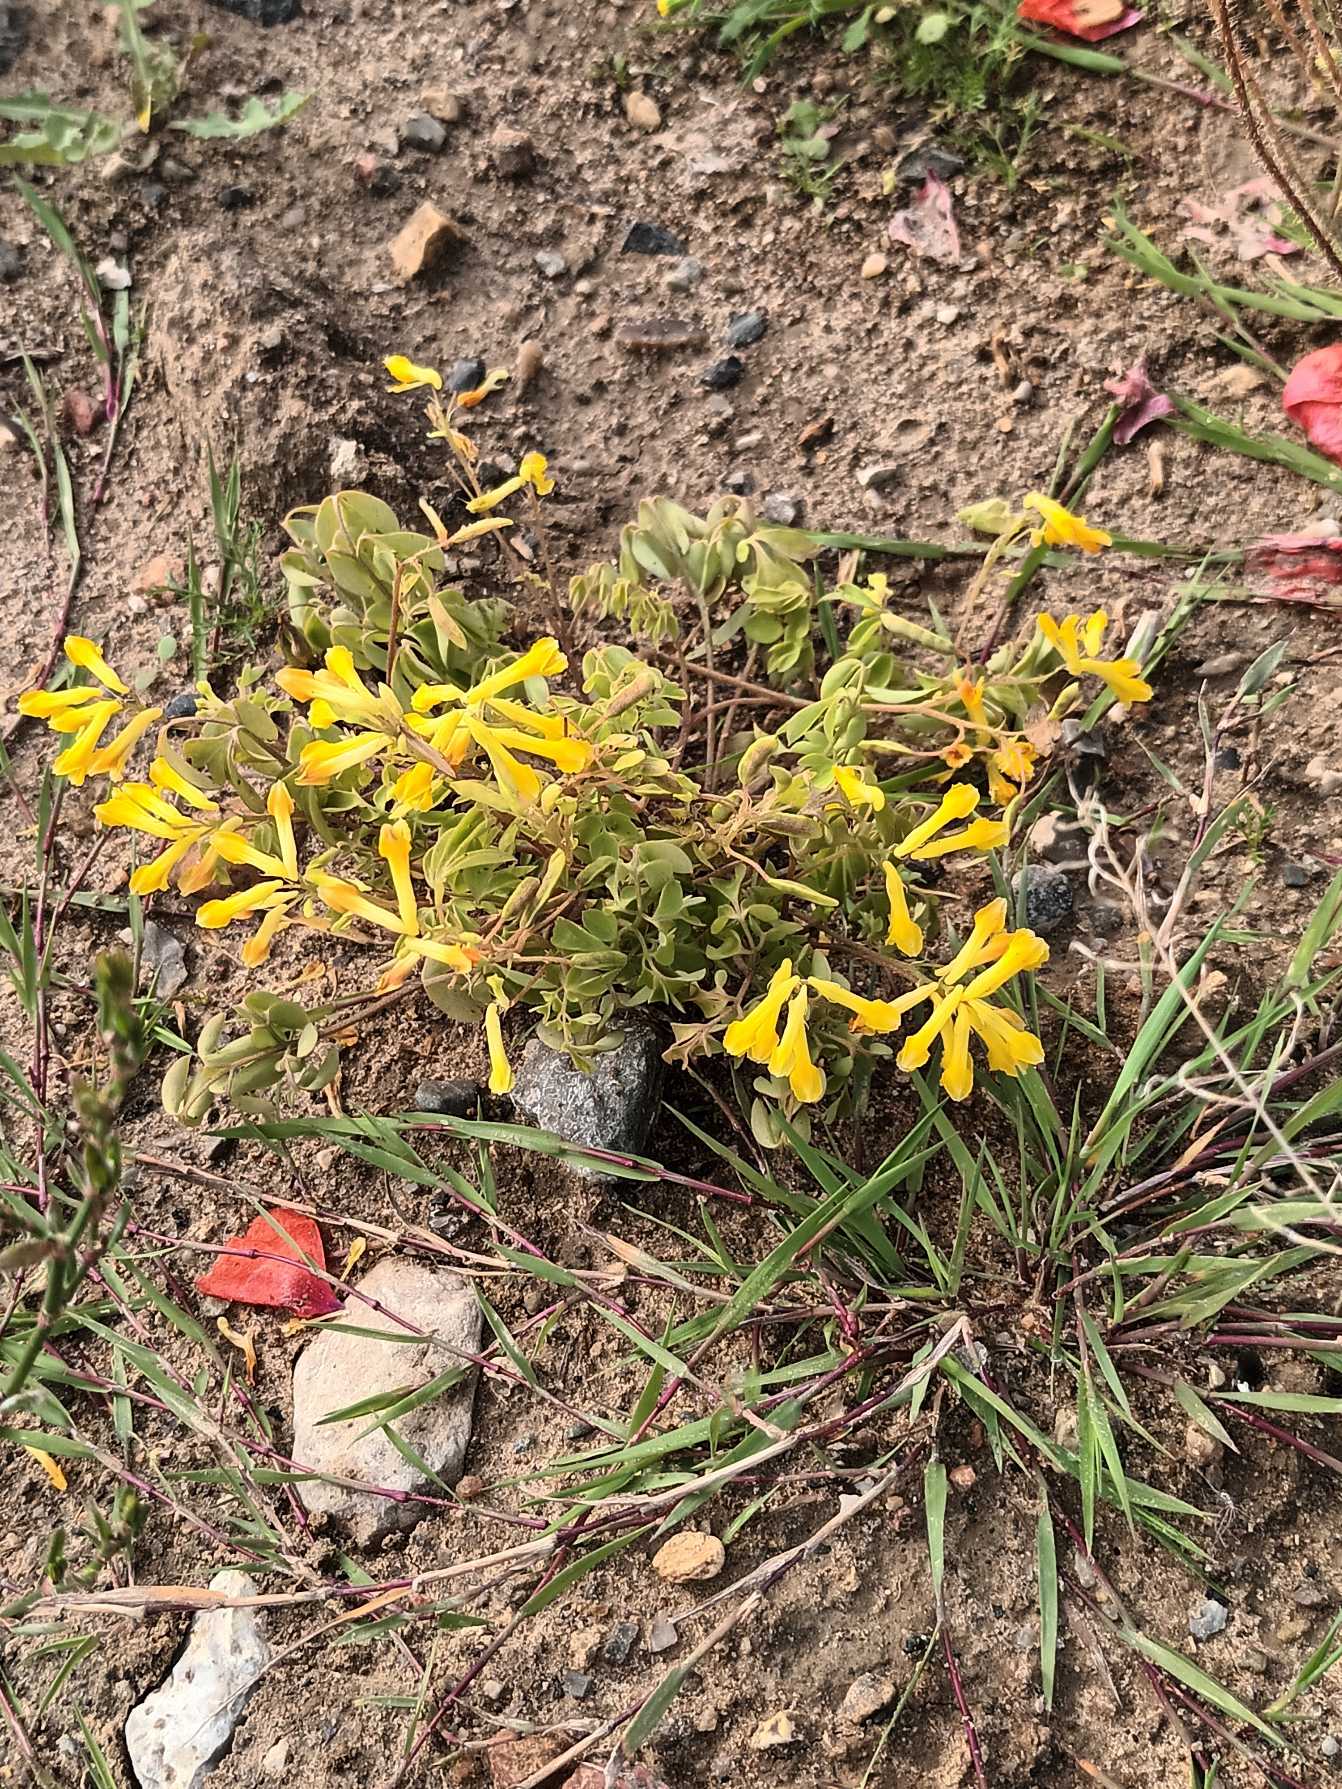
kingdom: Plantae
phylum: Tracheophyta
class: Magnoliopsida
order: Ranunculales
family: Papaveraceae
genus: Pseudofumaria
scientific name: Pseudofumaria lutea
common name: Gul lærkespore
